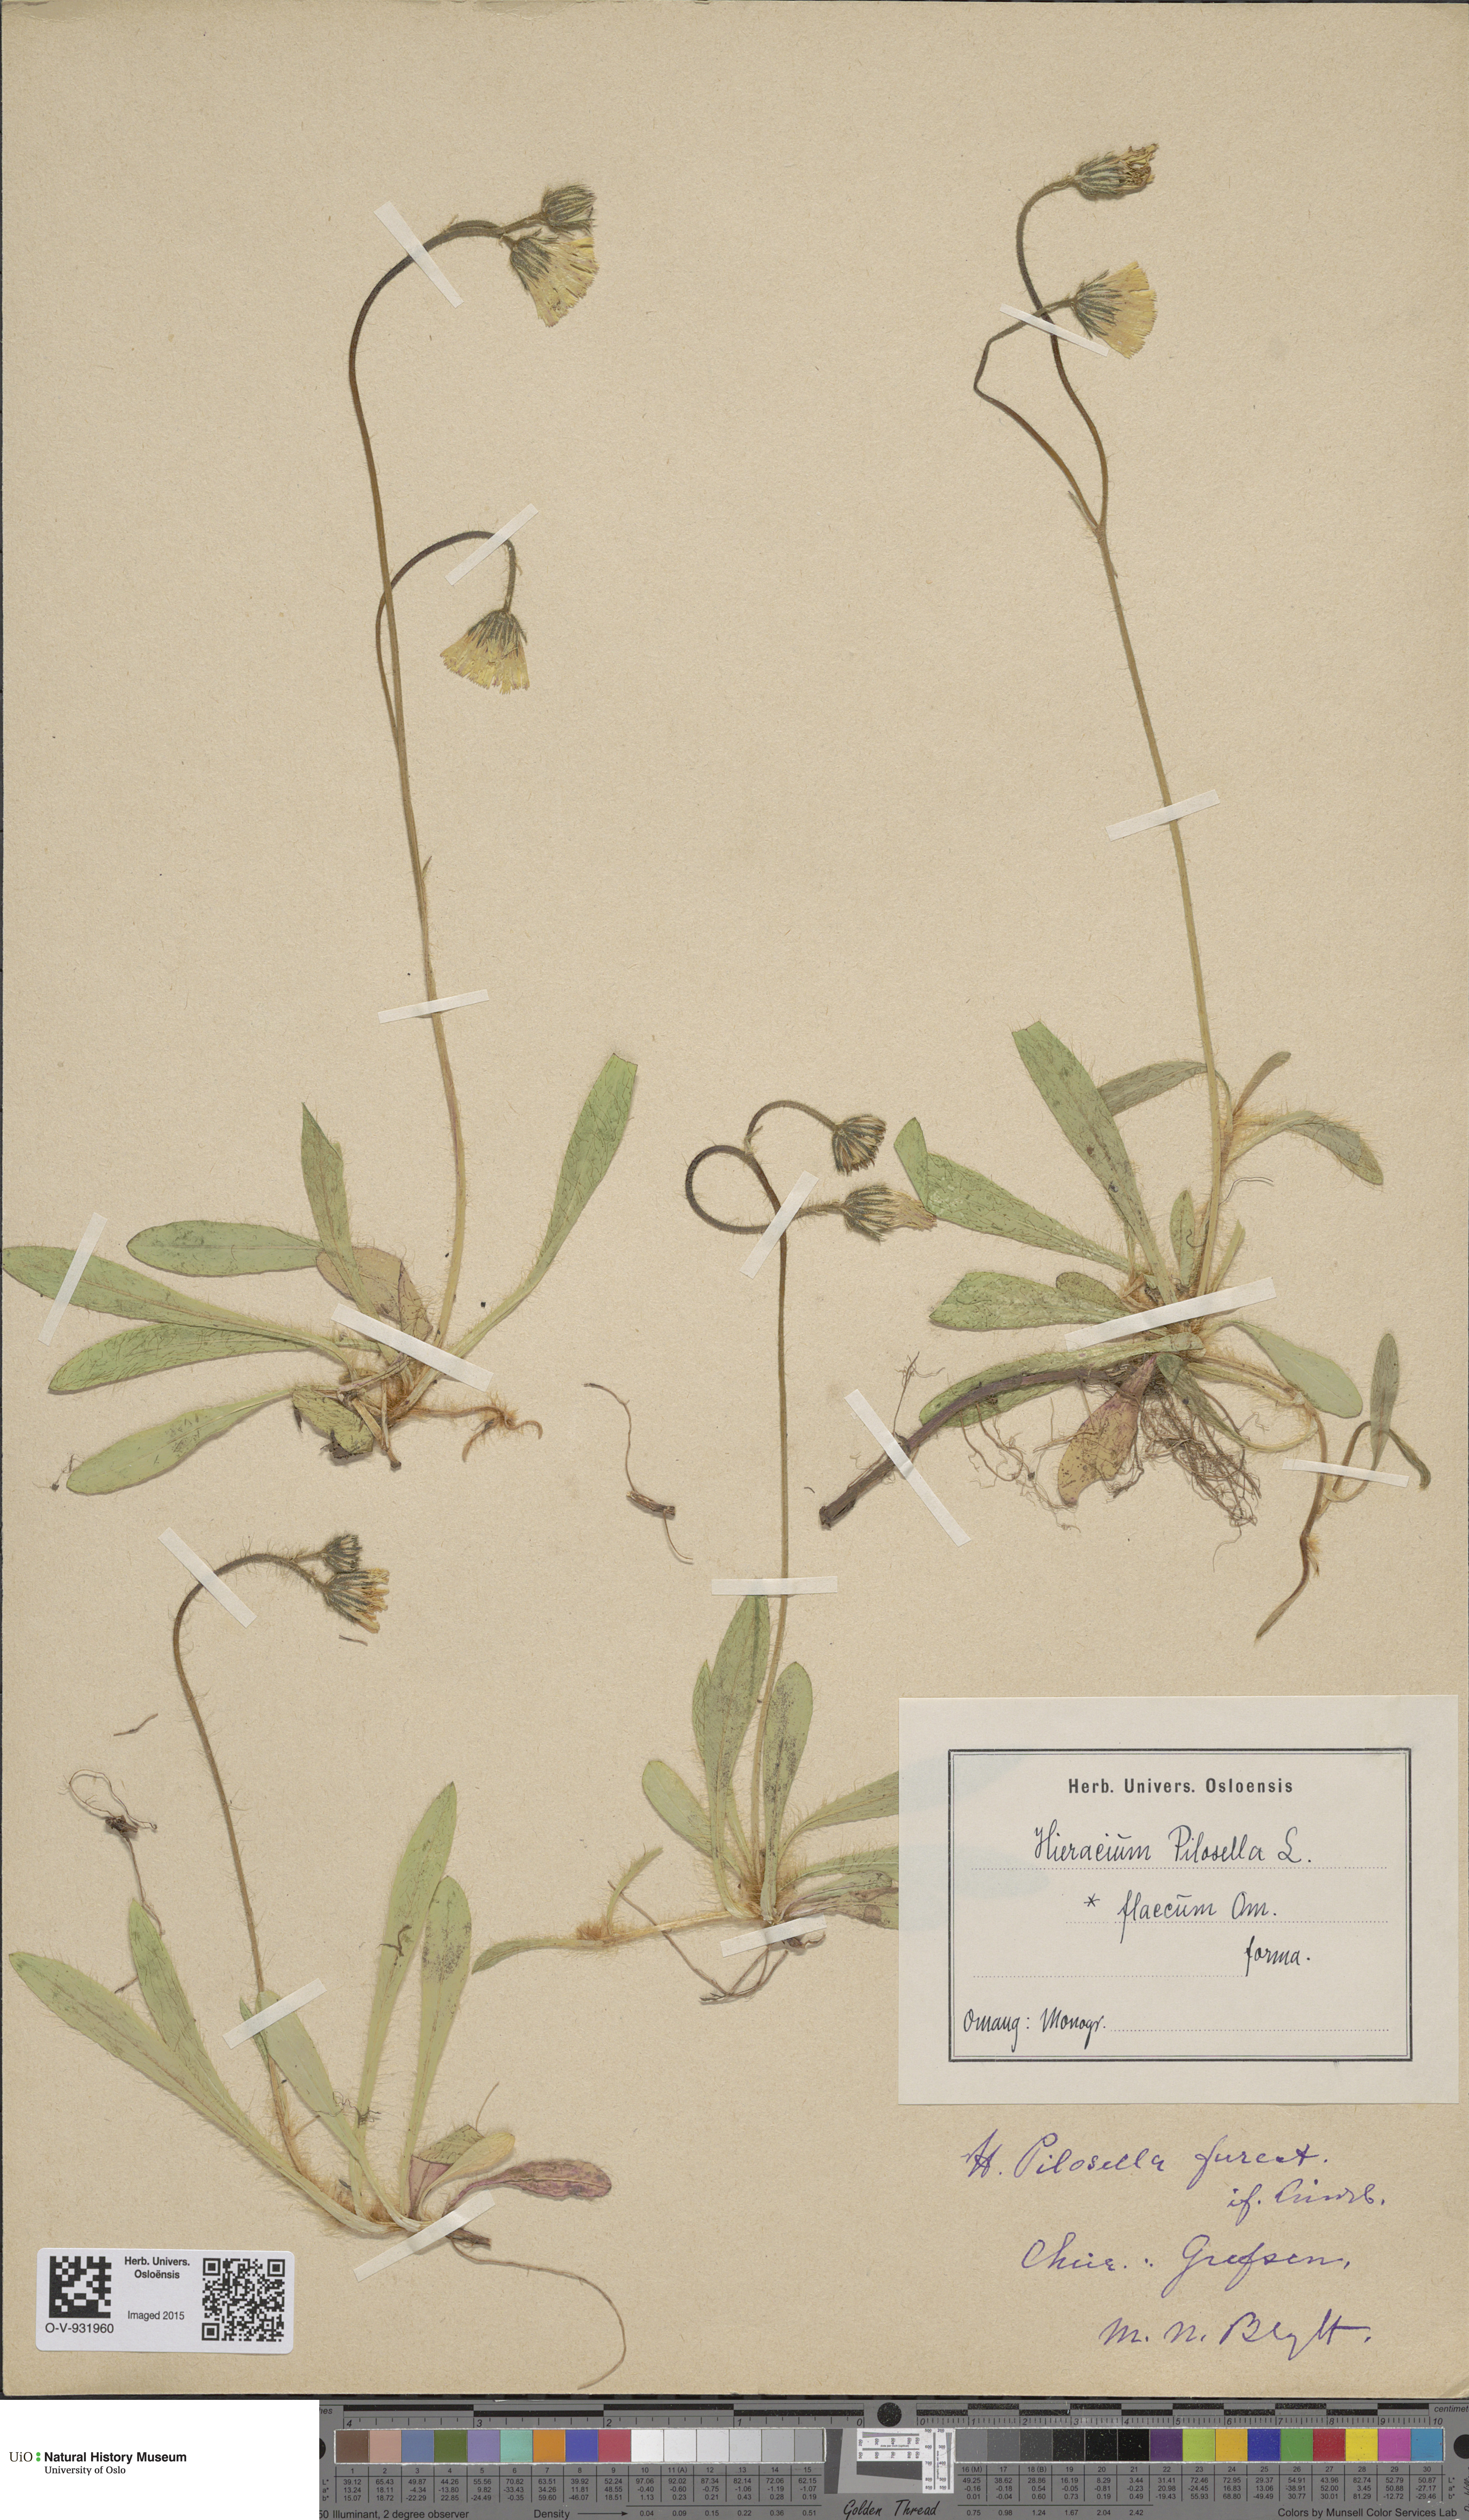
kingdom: Plantae
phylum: Tracheophyta
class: Magnoliopsida
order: Asterales
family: Asteraceae
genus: Pilosella
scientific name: Pilosella officinarum
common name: Mouse-ear hawkweed
